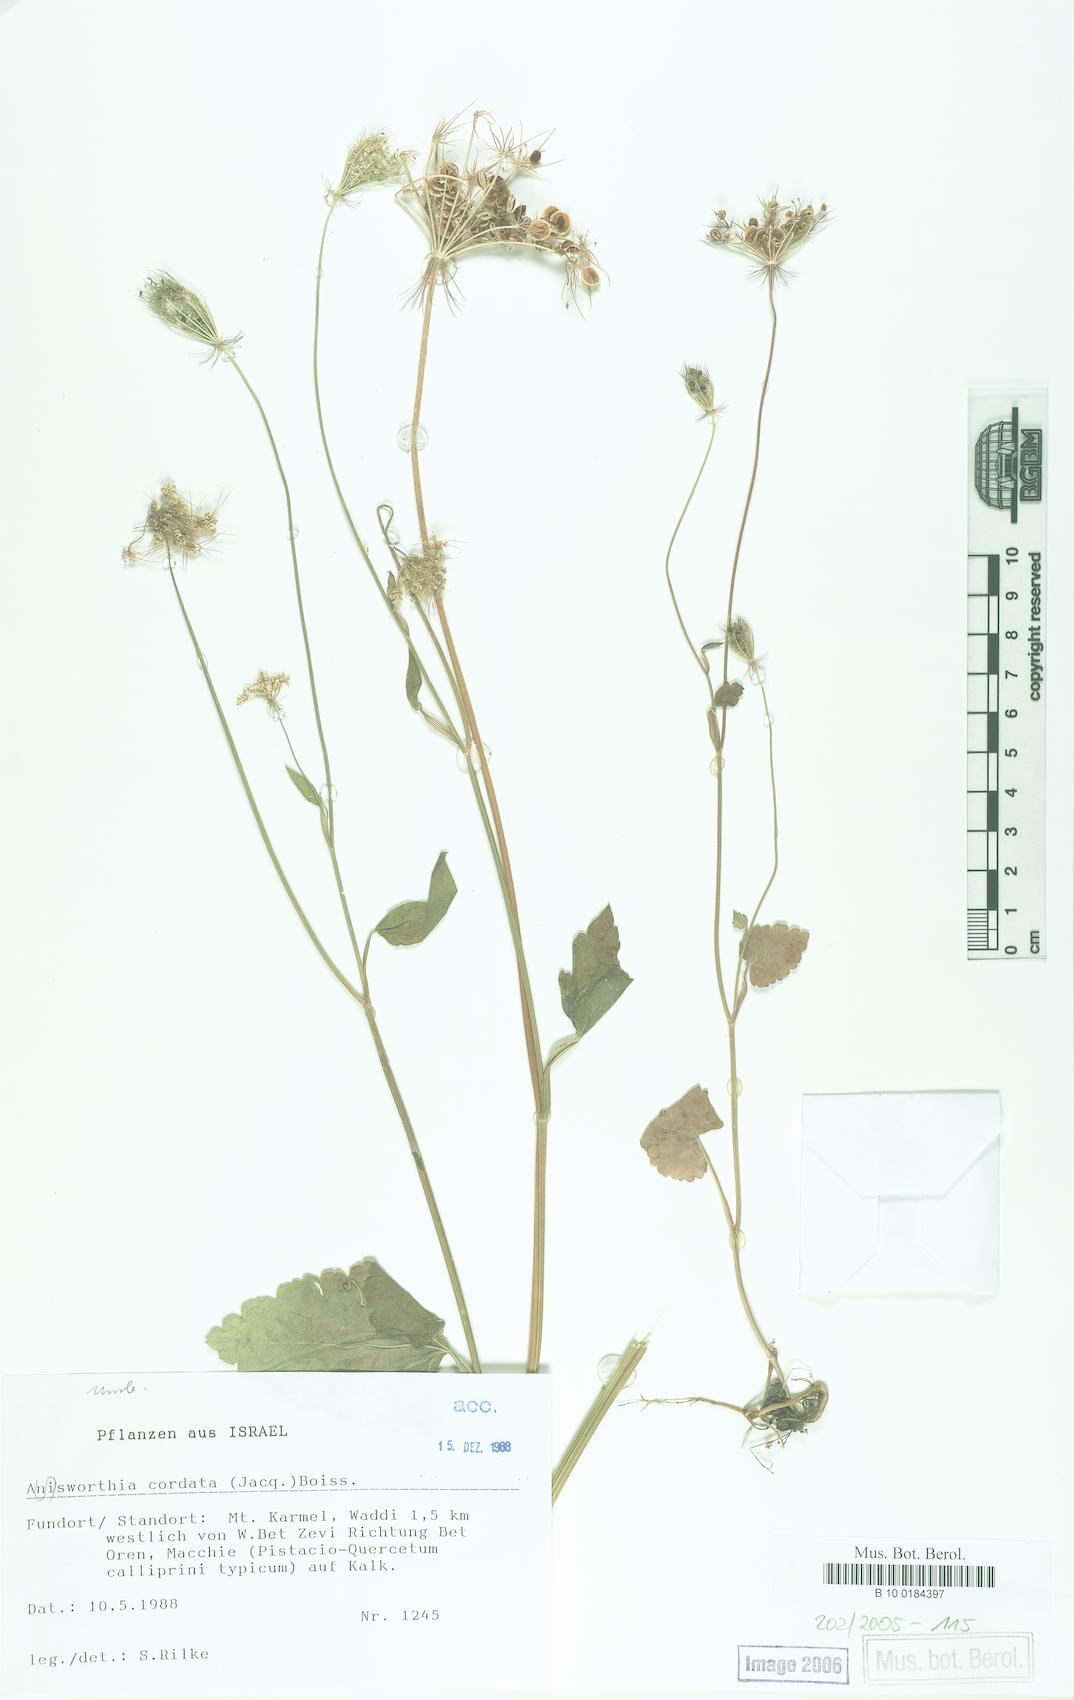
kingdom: Plantae
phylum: Tracheophyta
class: Magnoliopsida
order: Apiales
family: Apiaceae
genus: Ainsworthia
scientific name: Ainsworthia cordata
